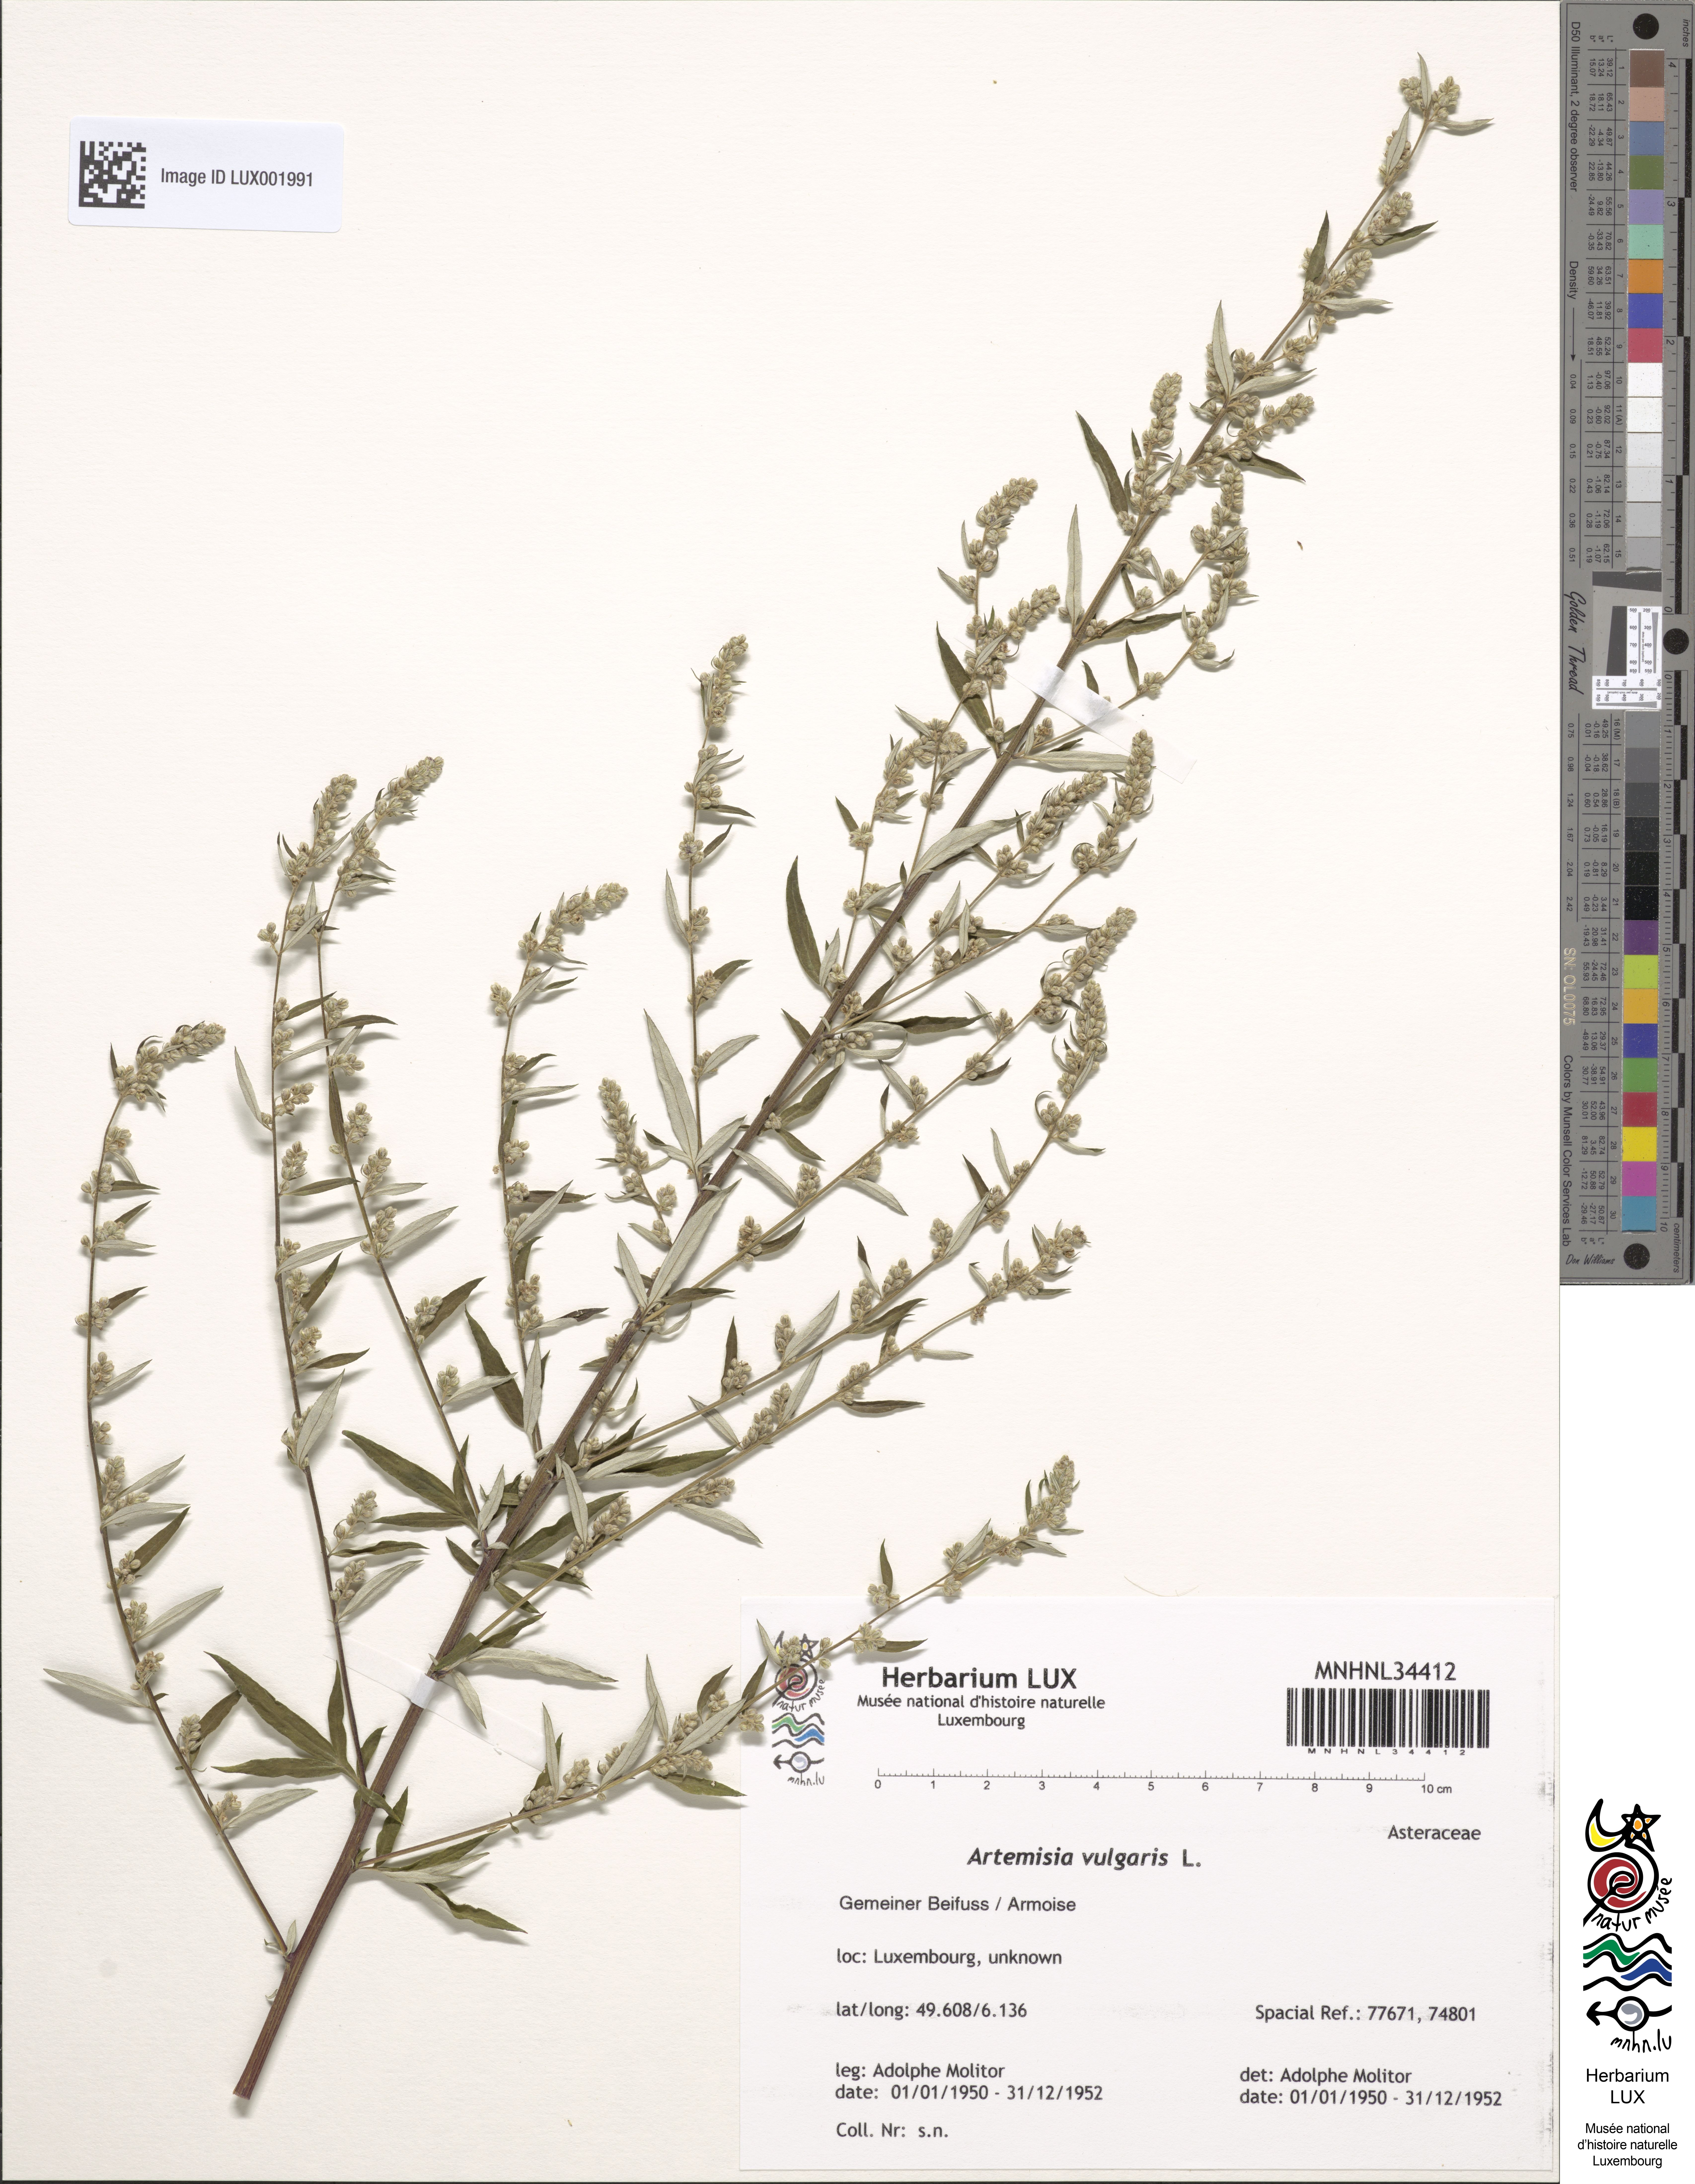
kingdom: Plantae
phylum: Tracheophyta
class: Magnoliopsida
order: Asterales
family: Asteraceae
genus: Artemisia
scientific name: Artemisia vulgaris
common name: Mugwort
